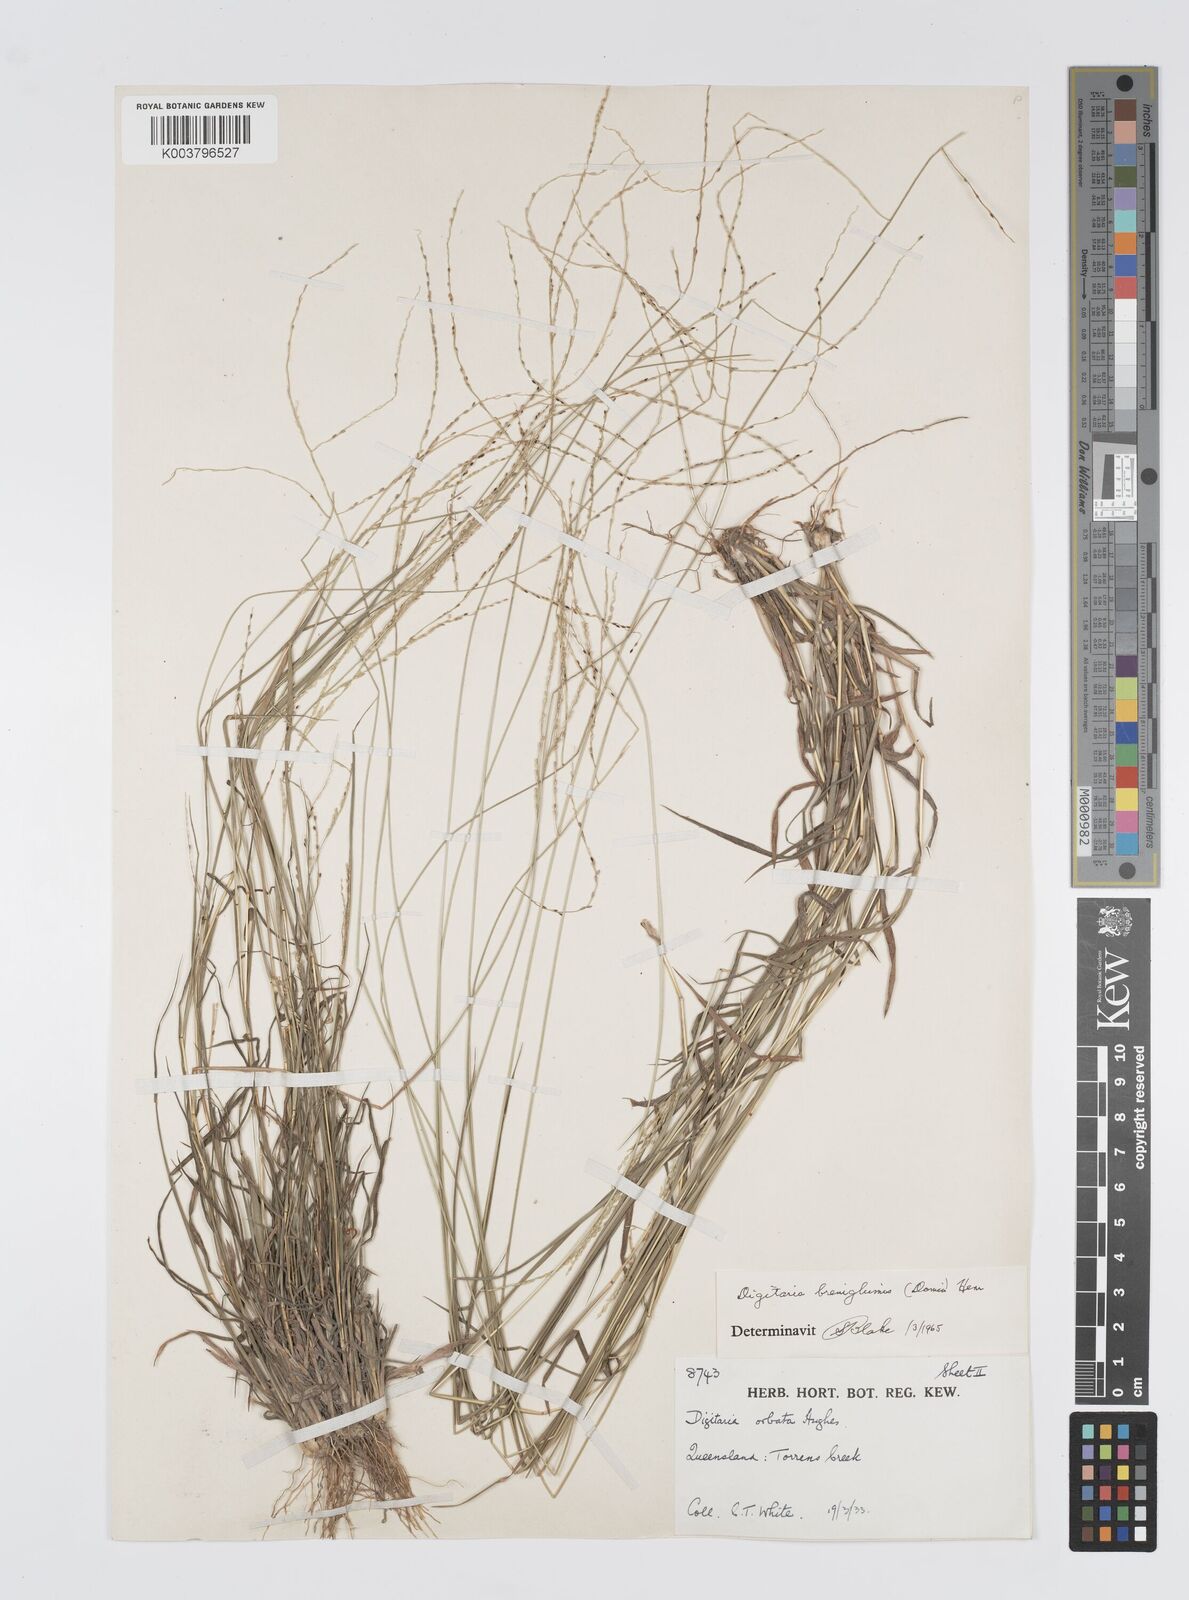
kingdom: Plantae
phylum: Tracheophyta
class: Liliopsida
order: Poales
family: Poaceae
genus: Digitaria
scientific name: Digitaria breviglumis
